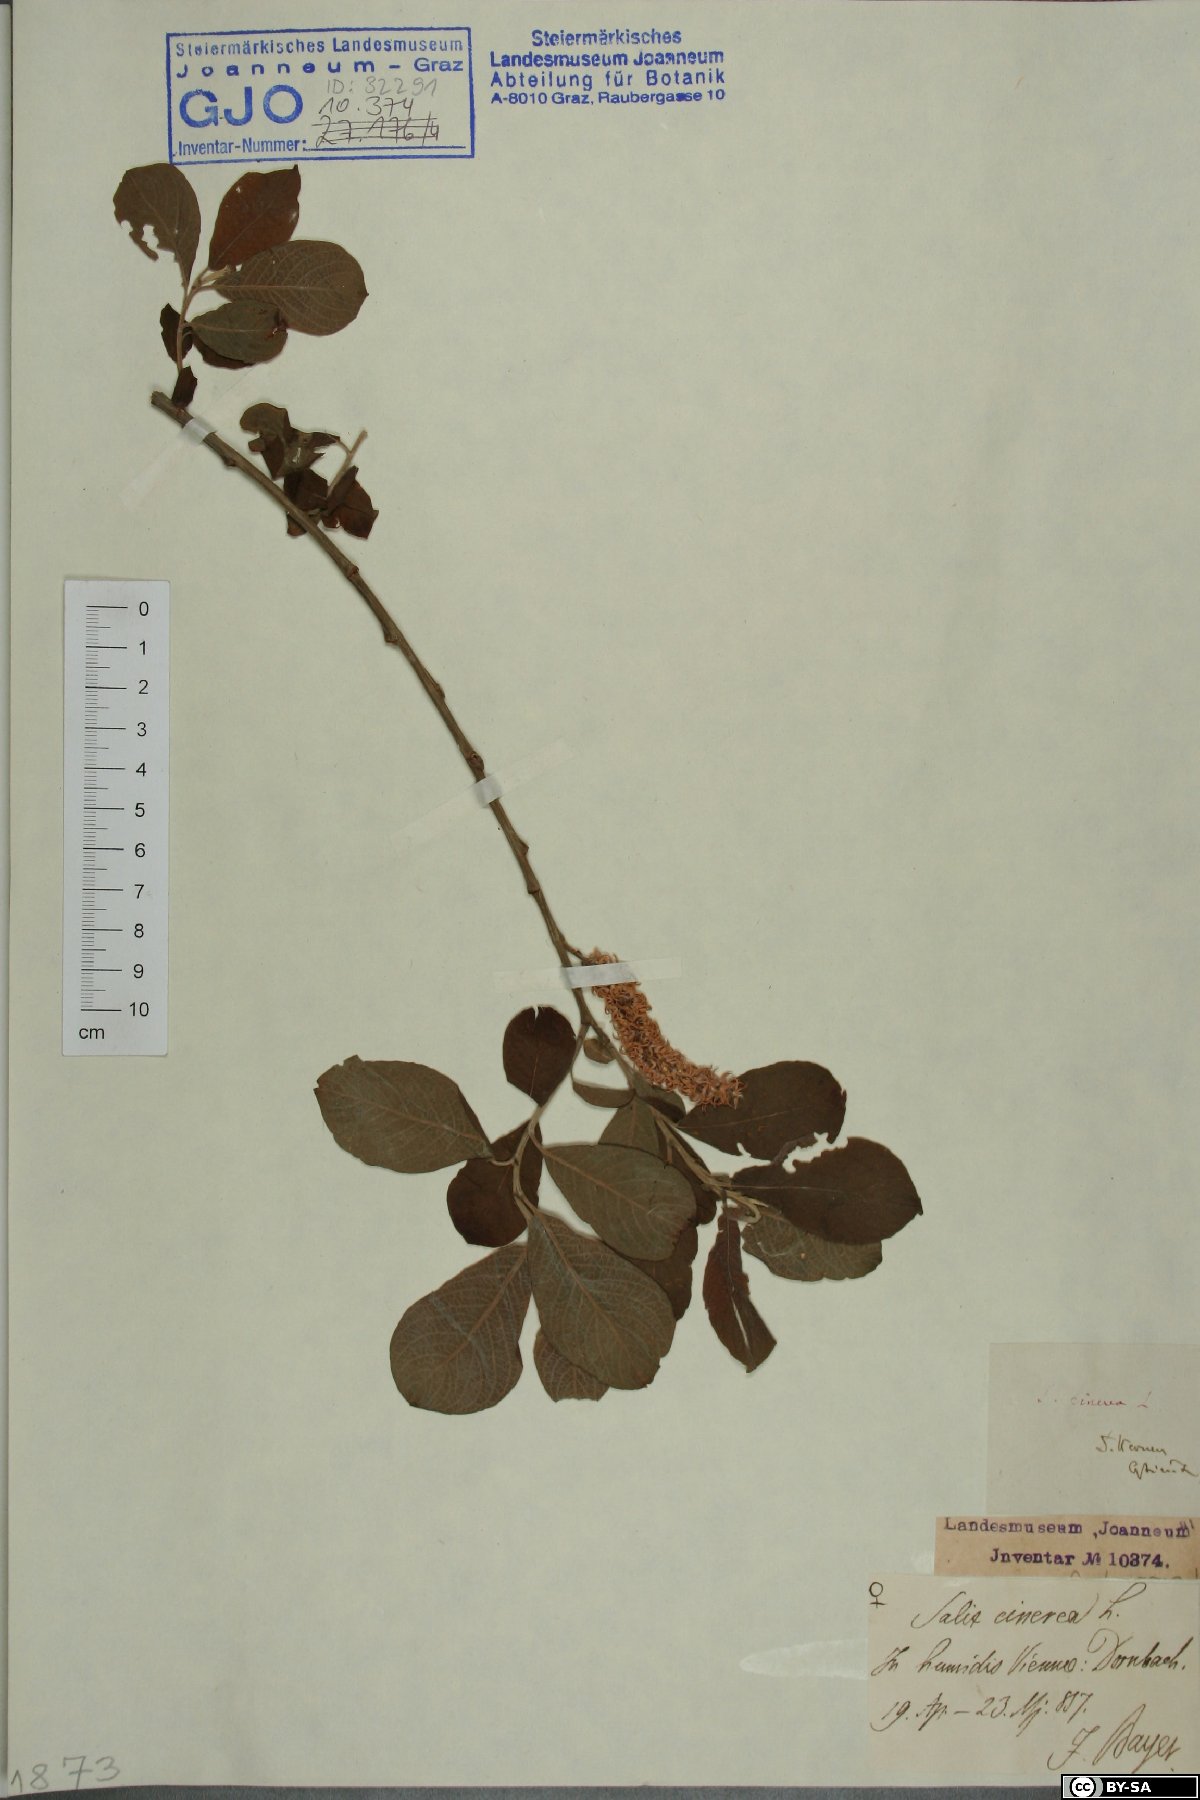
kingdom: Plantae
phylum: Tracheophyta
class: Magnoliopsida
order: Malpighiales
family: Salicaceae
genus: Salix
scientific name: Salix cinerea
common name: Common sallow
